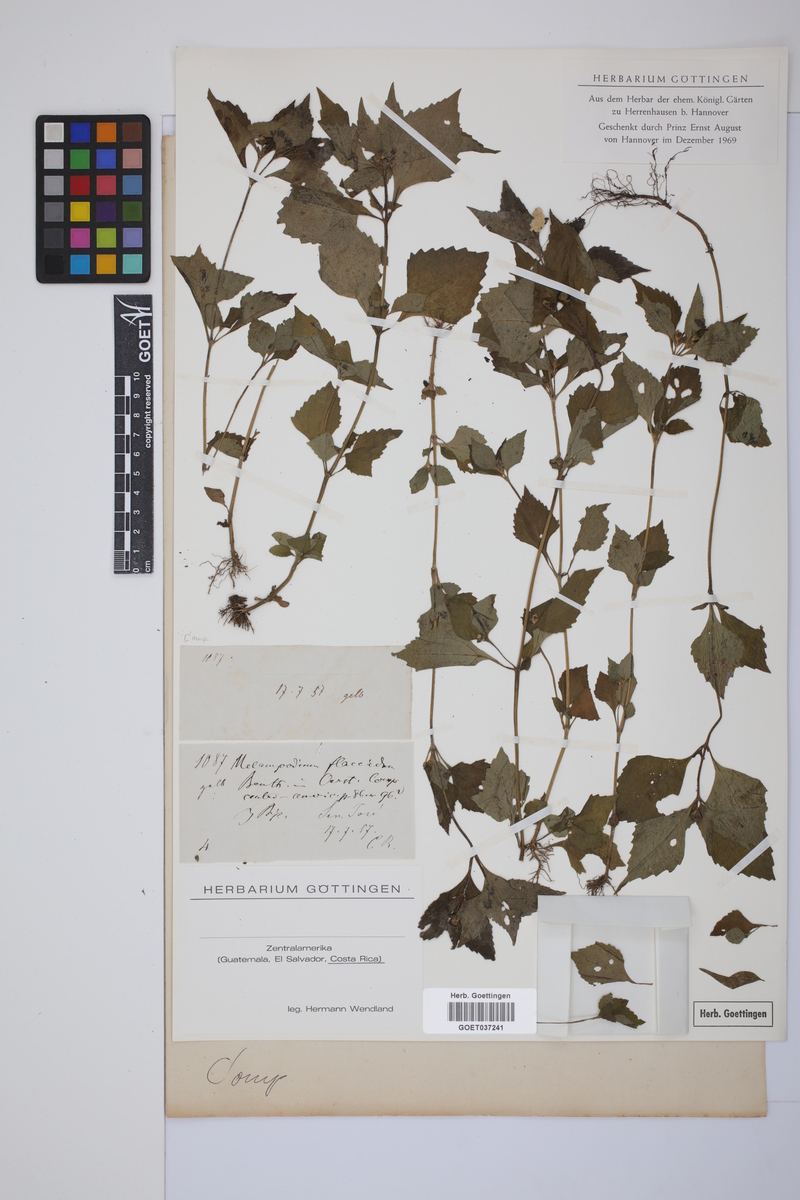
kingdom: Plantae
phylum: Tracheophyta
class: Magnoliopsida
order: Asterales
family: Asteraceae
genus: Melampodium
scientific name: Melampodium divaricatum
